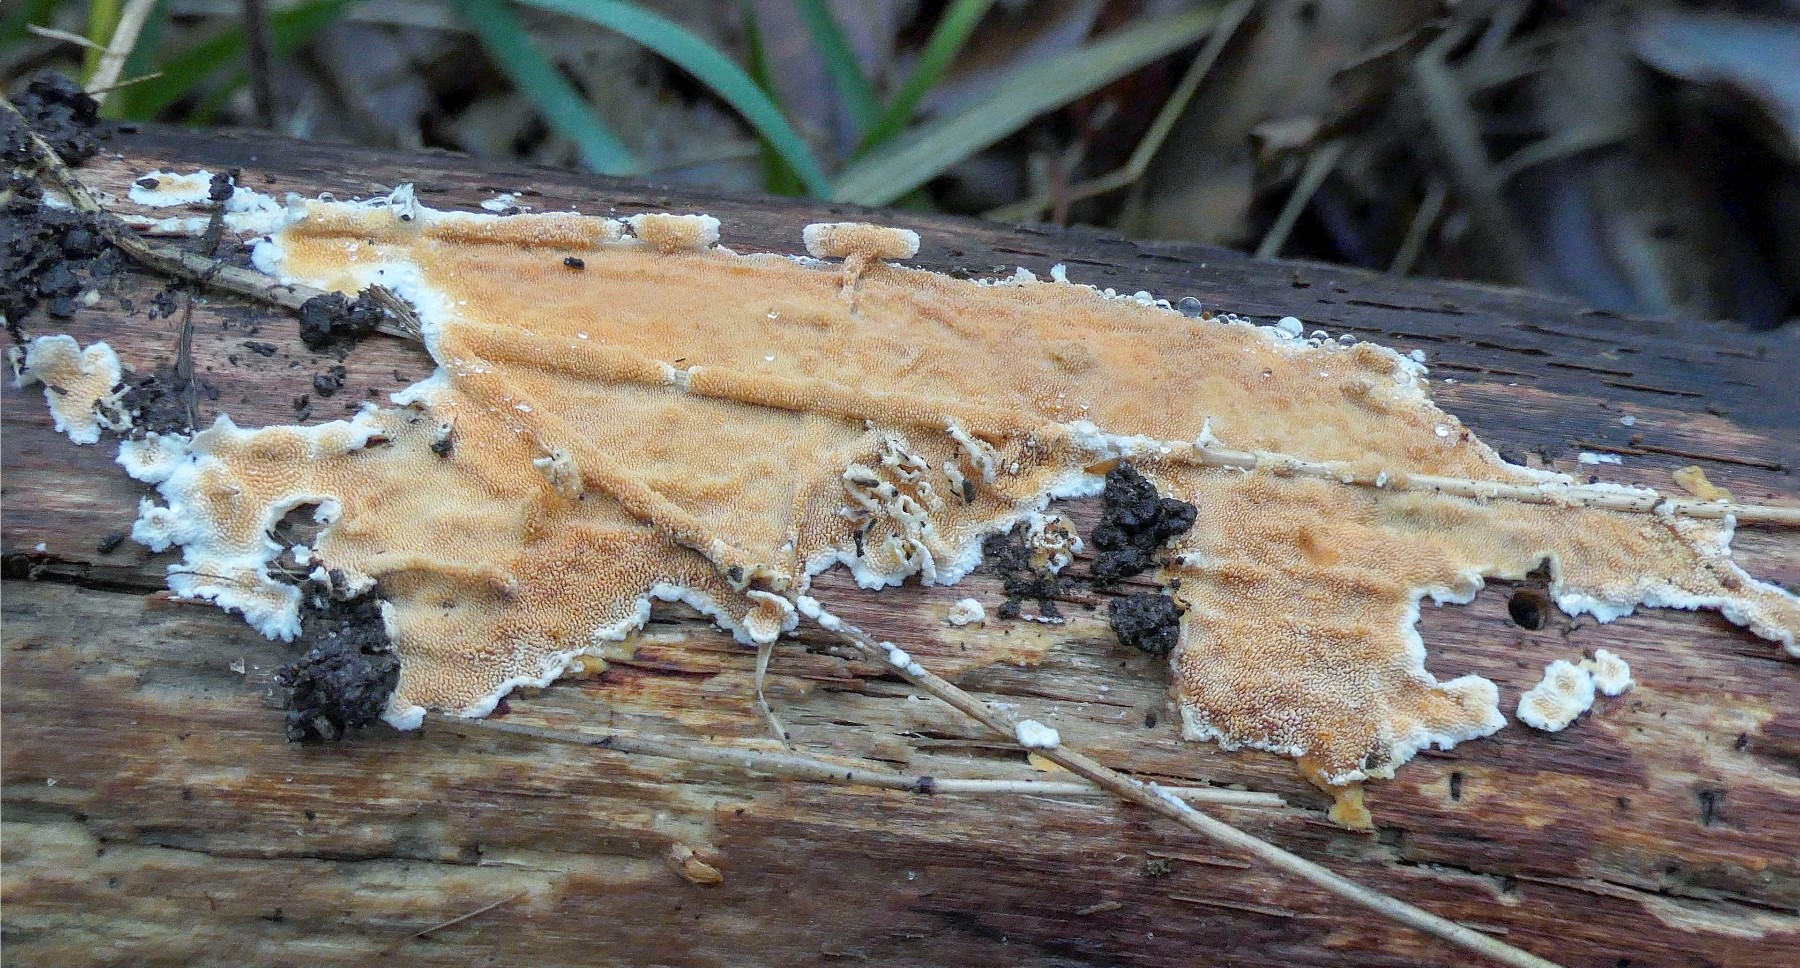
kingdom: Fungi
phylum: Basidiomycota
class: Agaricomycetes
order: Polyporales
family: Steccherinaceae
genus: Steccherinum
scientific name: Steccherinum ochraceum
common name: almindelig skønpig
